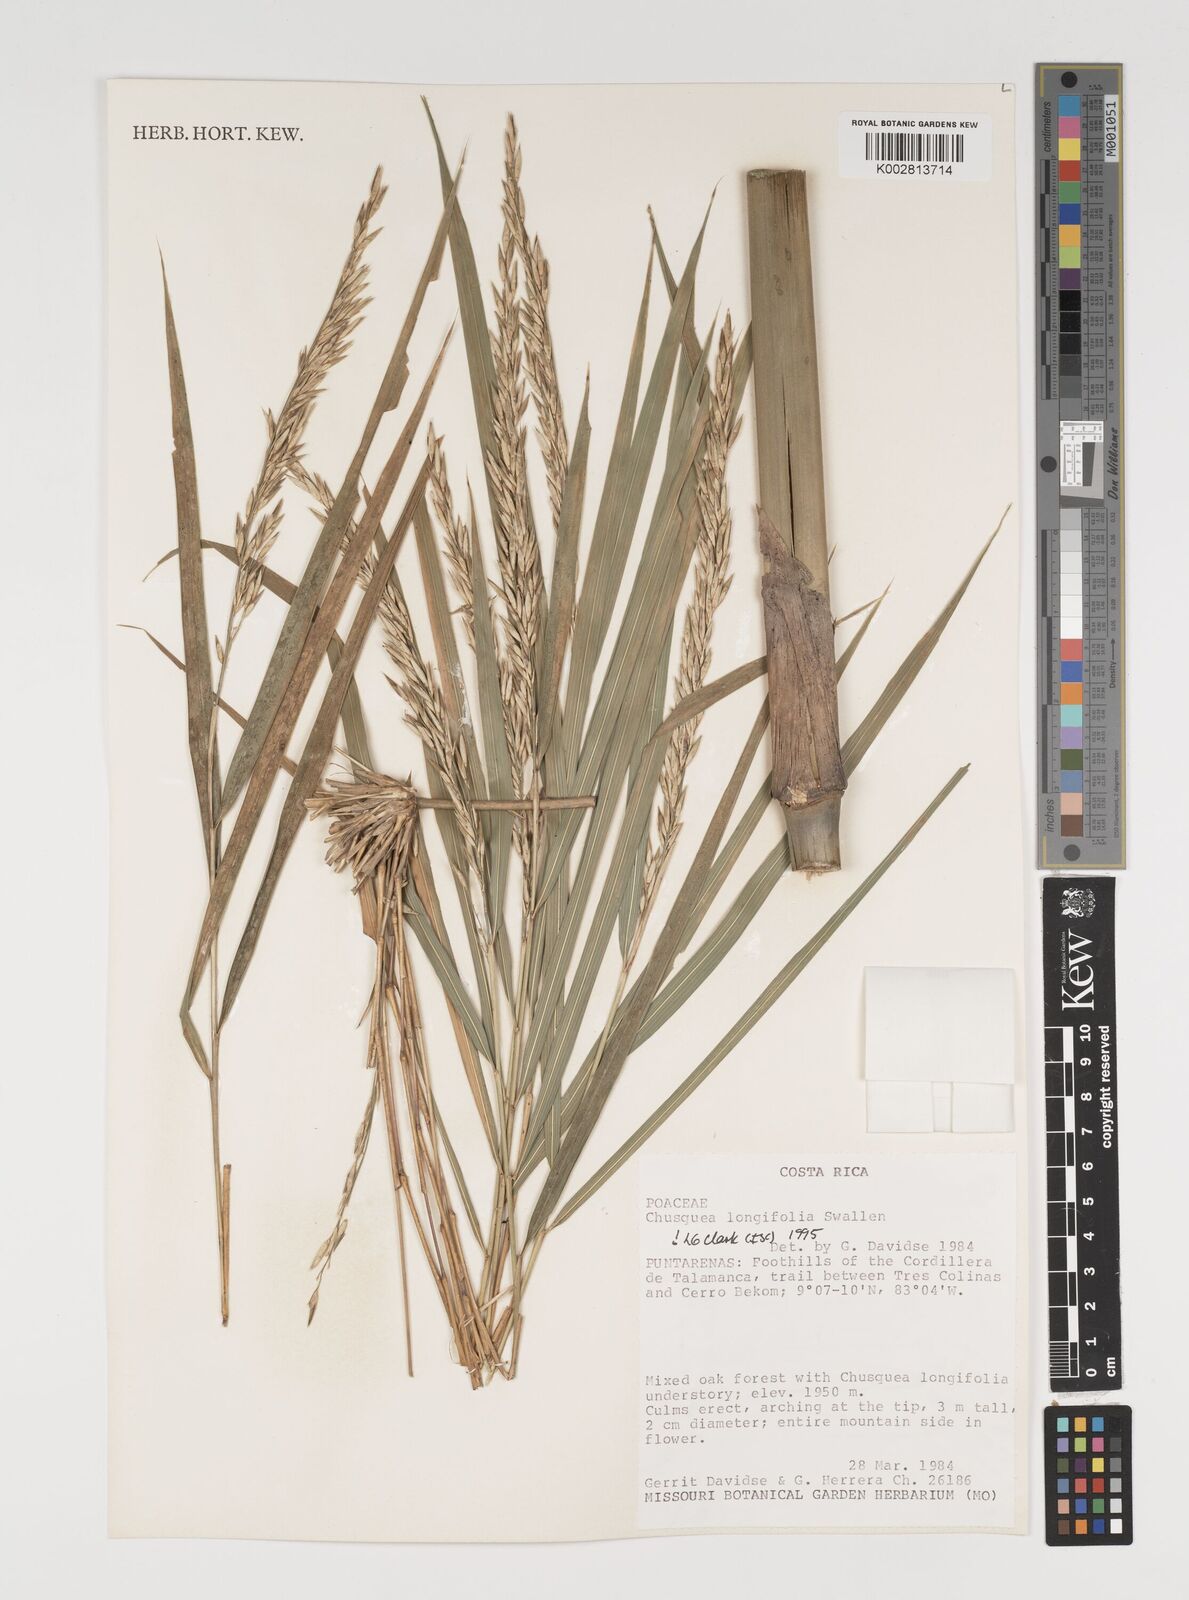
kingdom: Plantae
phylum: Tracheophyta
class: Liliopsida
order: Poales
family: Poaceae
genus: Chusquea
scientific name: Chusquea longifolia
